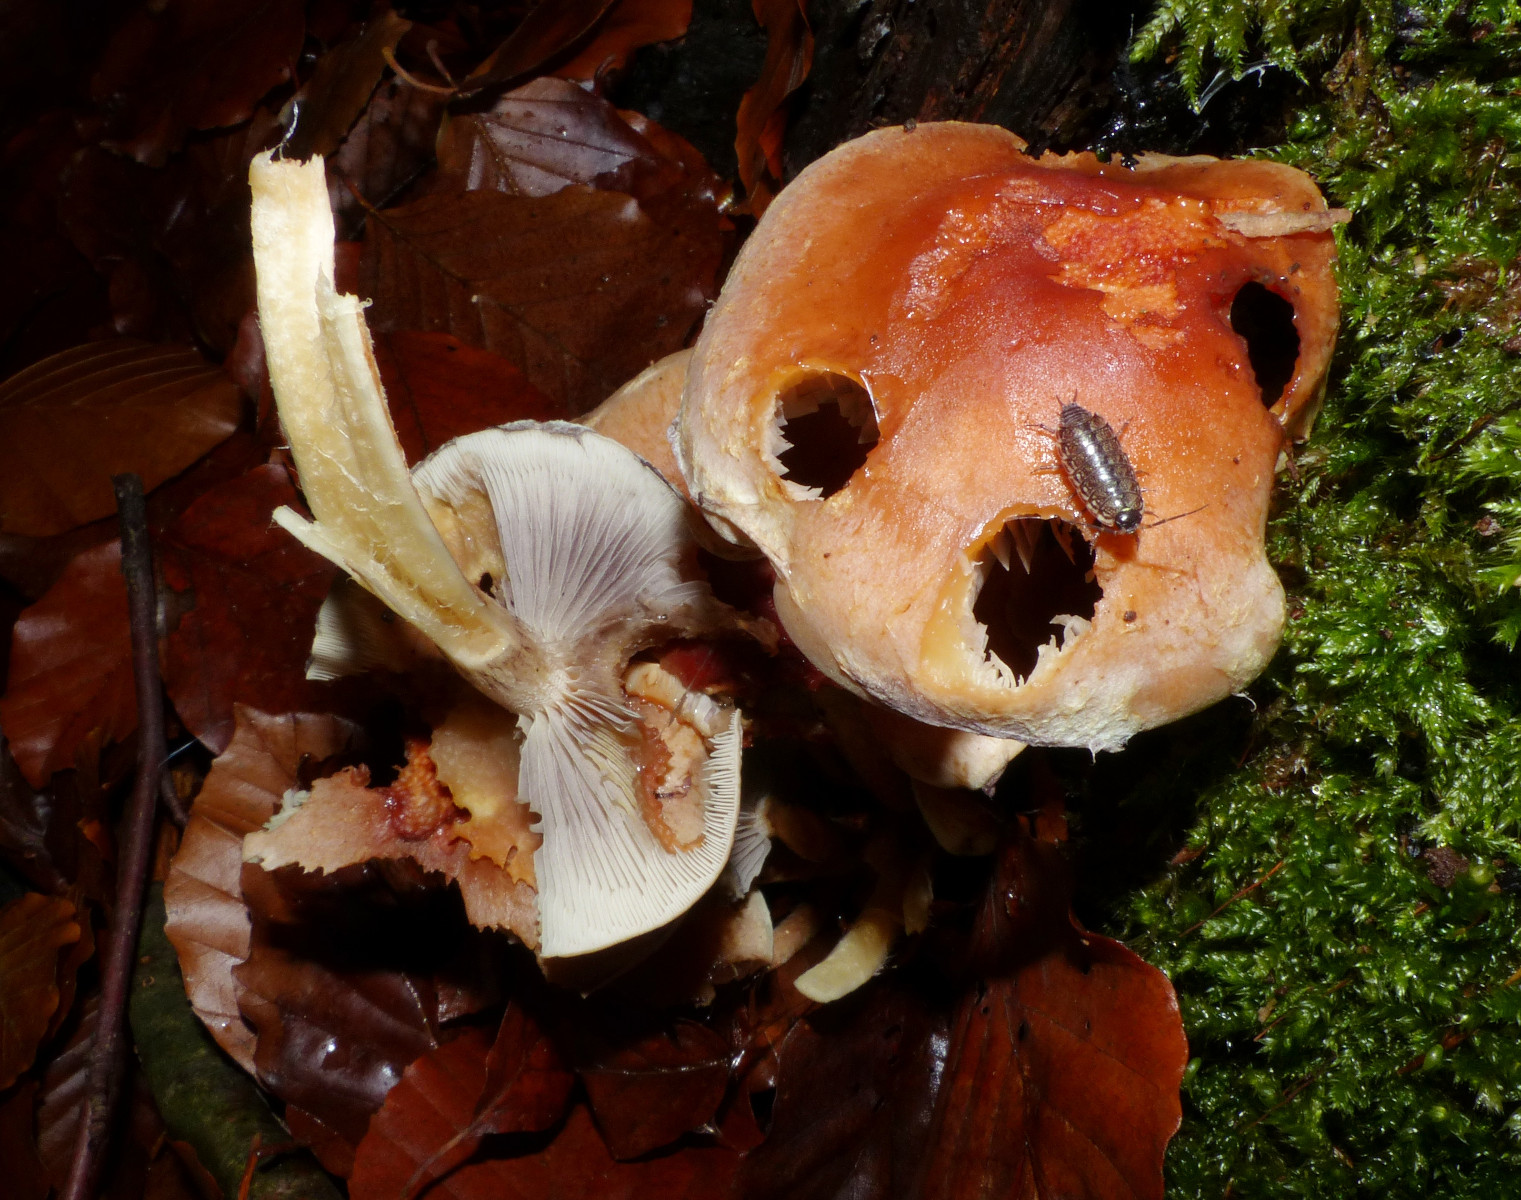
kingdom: Fungi
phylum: Basidiomycota
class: Agaricomycetes
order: Agaricales
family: Strophariaceae
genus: Hypholoma
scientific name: Hypholoma lateritium
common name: teglrød svovlhat
